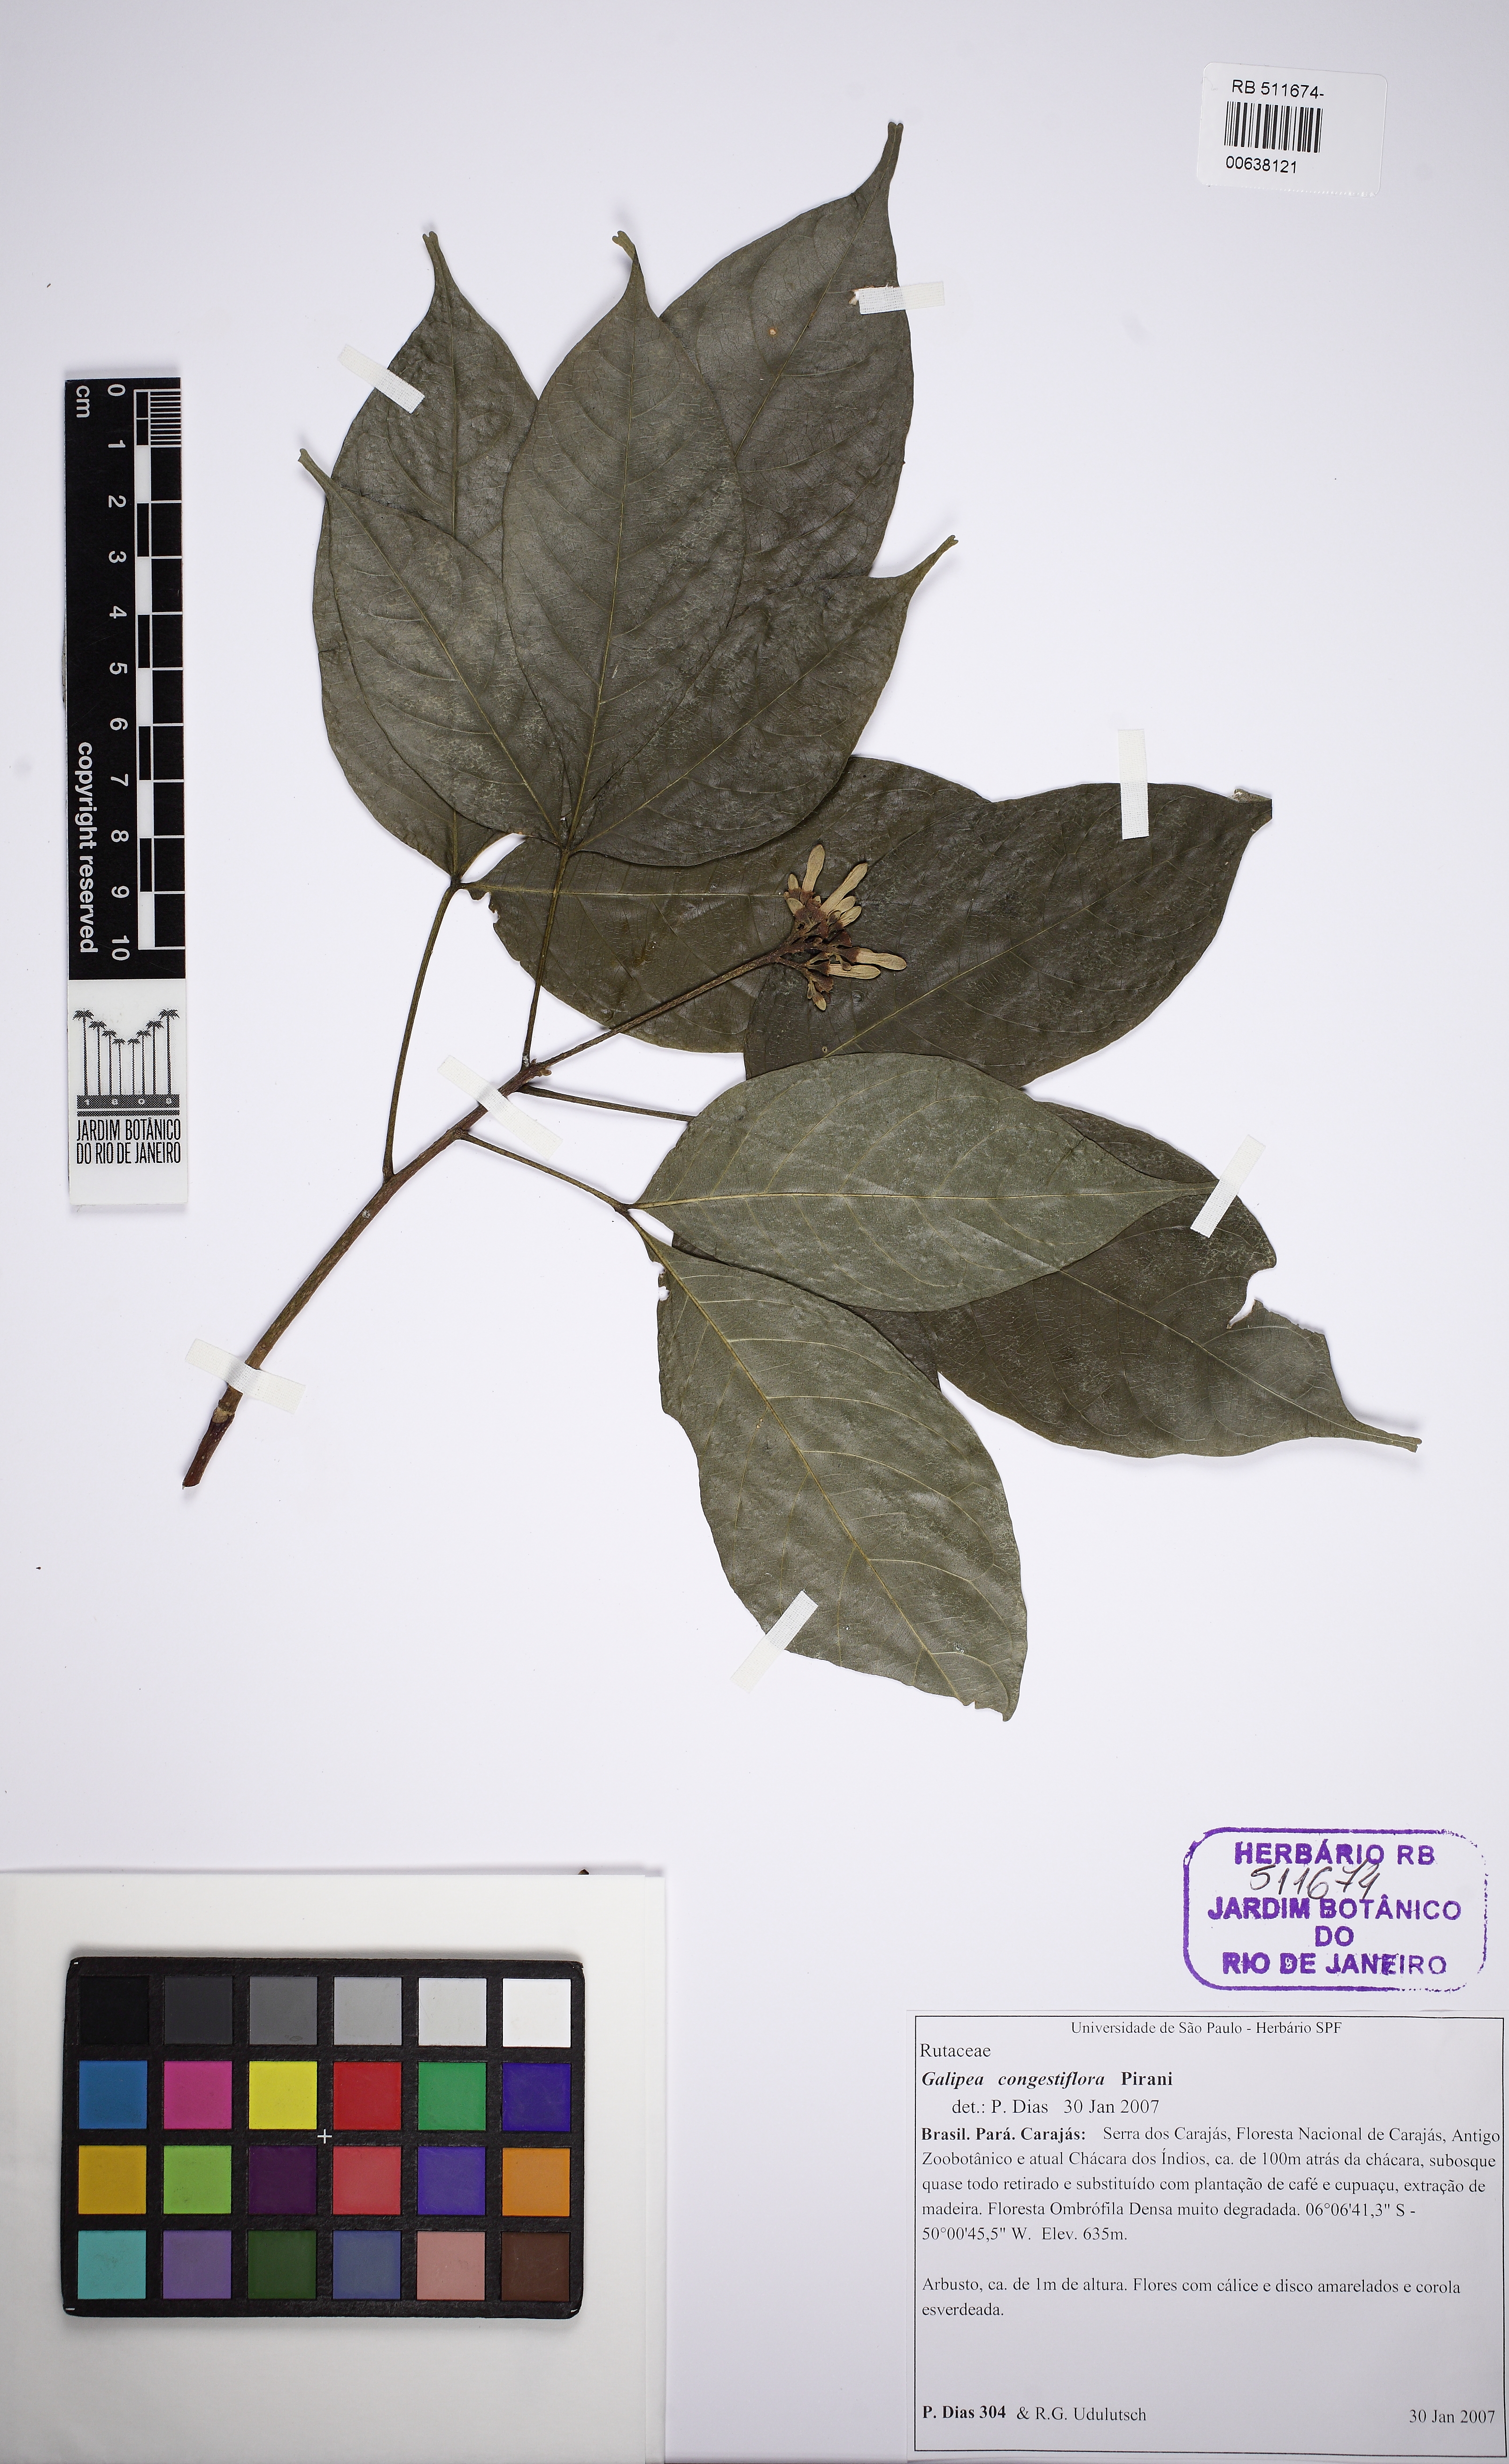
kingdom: Plantae
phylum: Tracheophyta
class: Magnoliopsida
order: Sapindales
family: Rutaceae
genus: Galipea
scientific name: Galipea congestiflora
